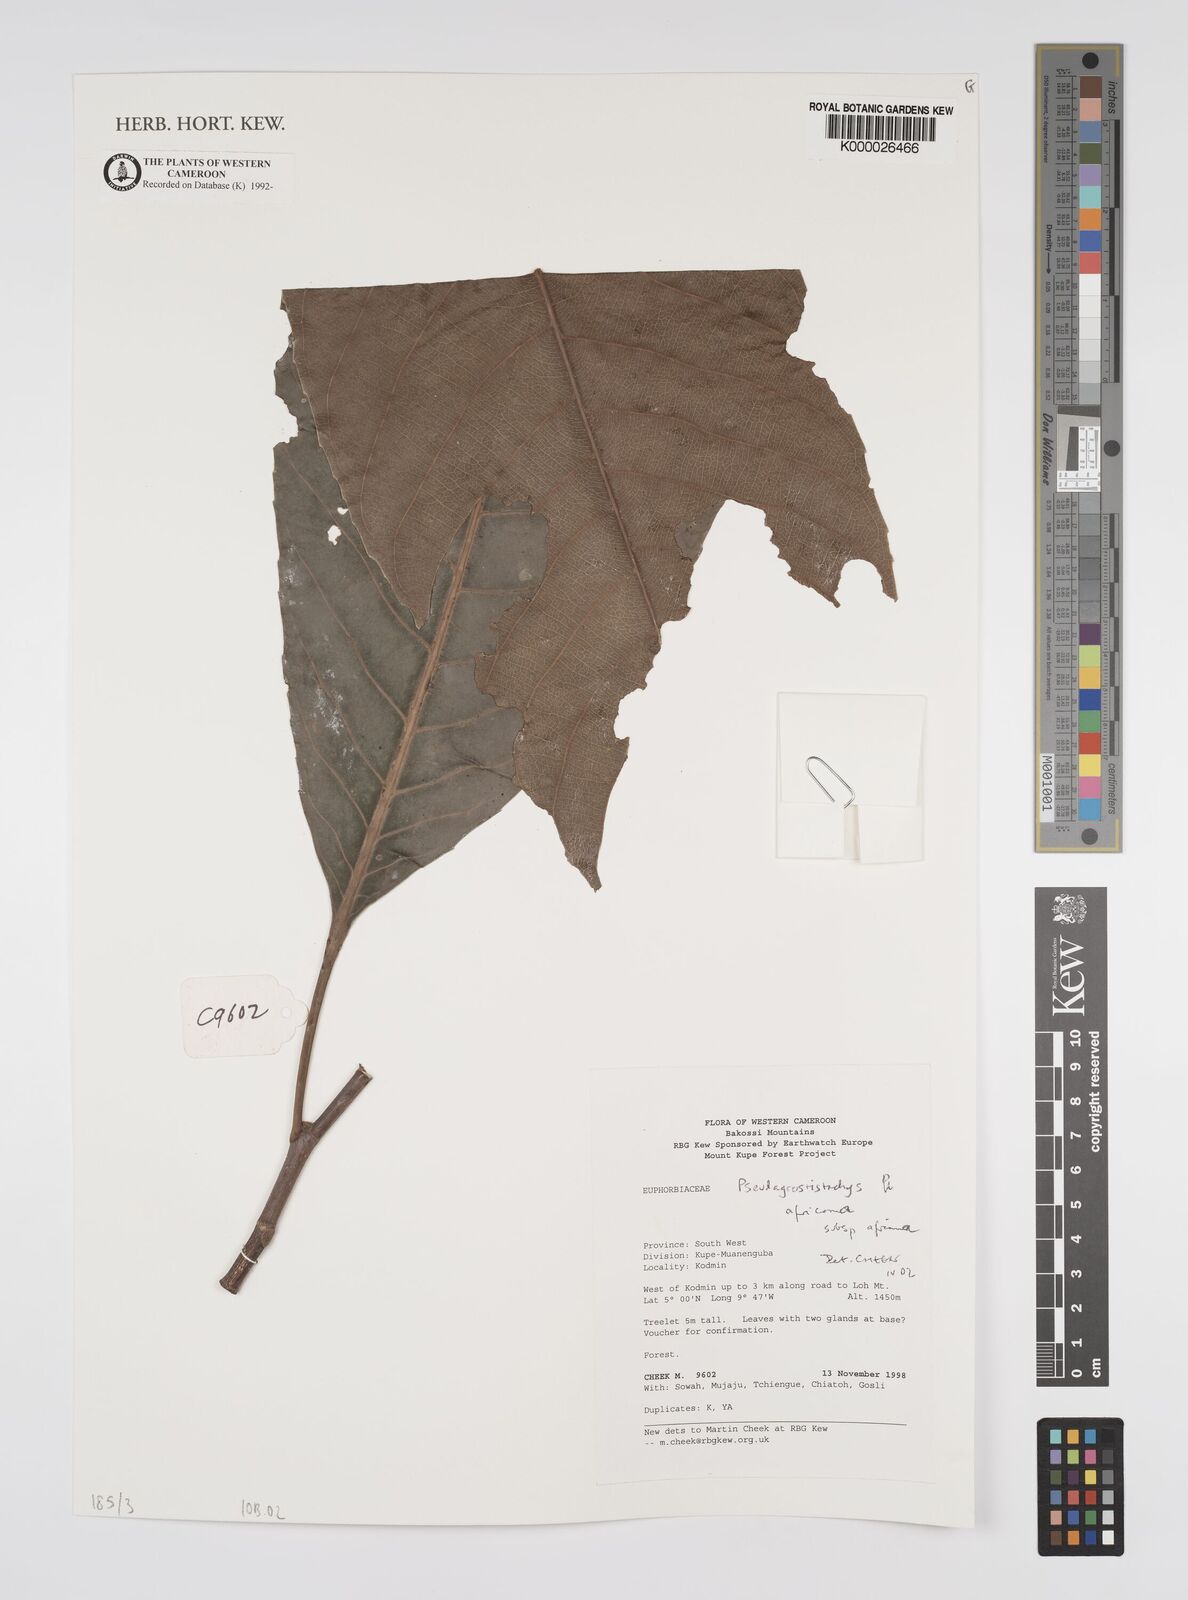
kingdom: Plantae
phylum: Tracheophyta
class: Magnoliopsida
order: Malpighiales
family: Euphorbiaceae
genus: Pseudagrostistachys
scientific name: Pseudagrostistachys
